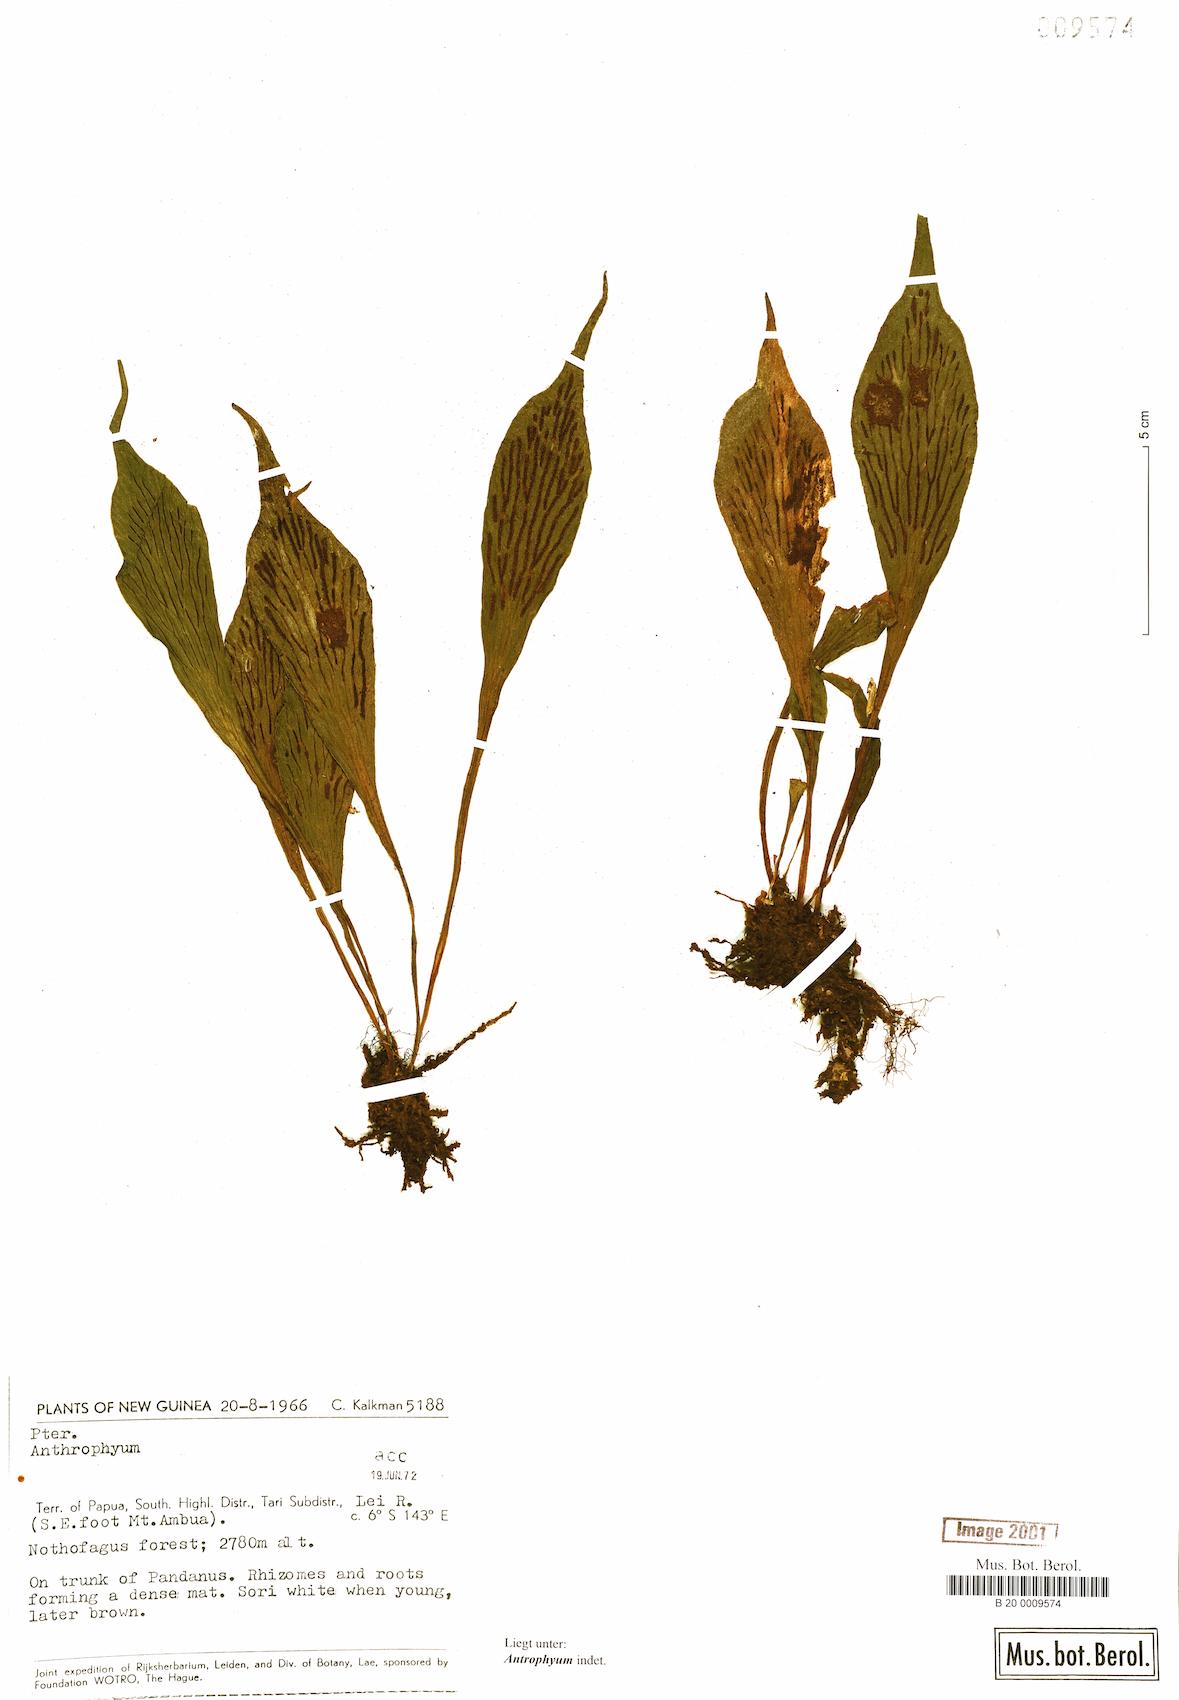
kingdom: Plantae
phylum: Tracheophyta
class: Polypodiopsida
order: Polypodiales
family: Pteridaceae
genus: Antrophyum
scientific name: Antrophyum
